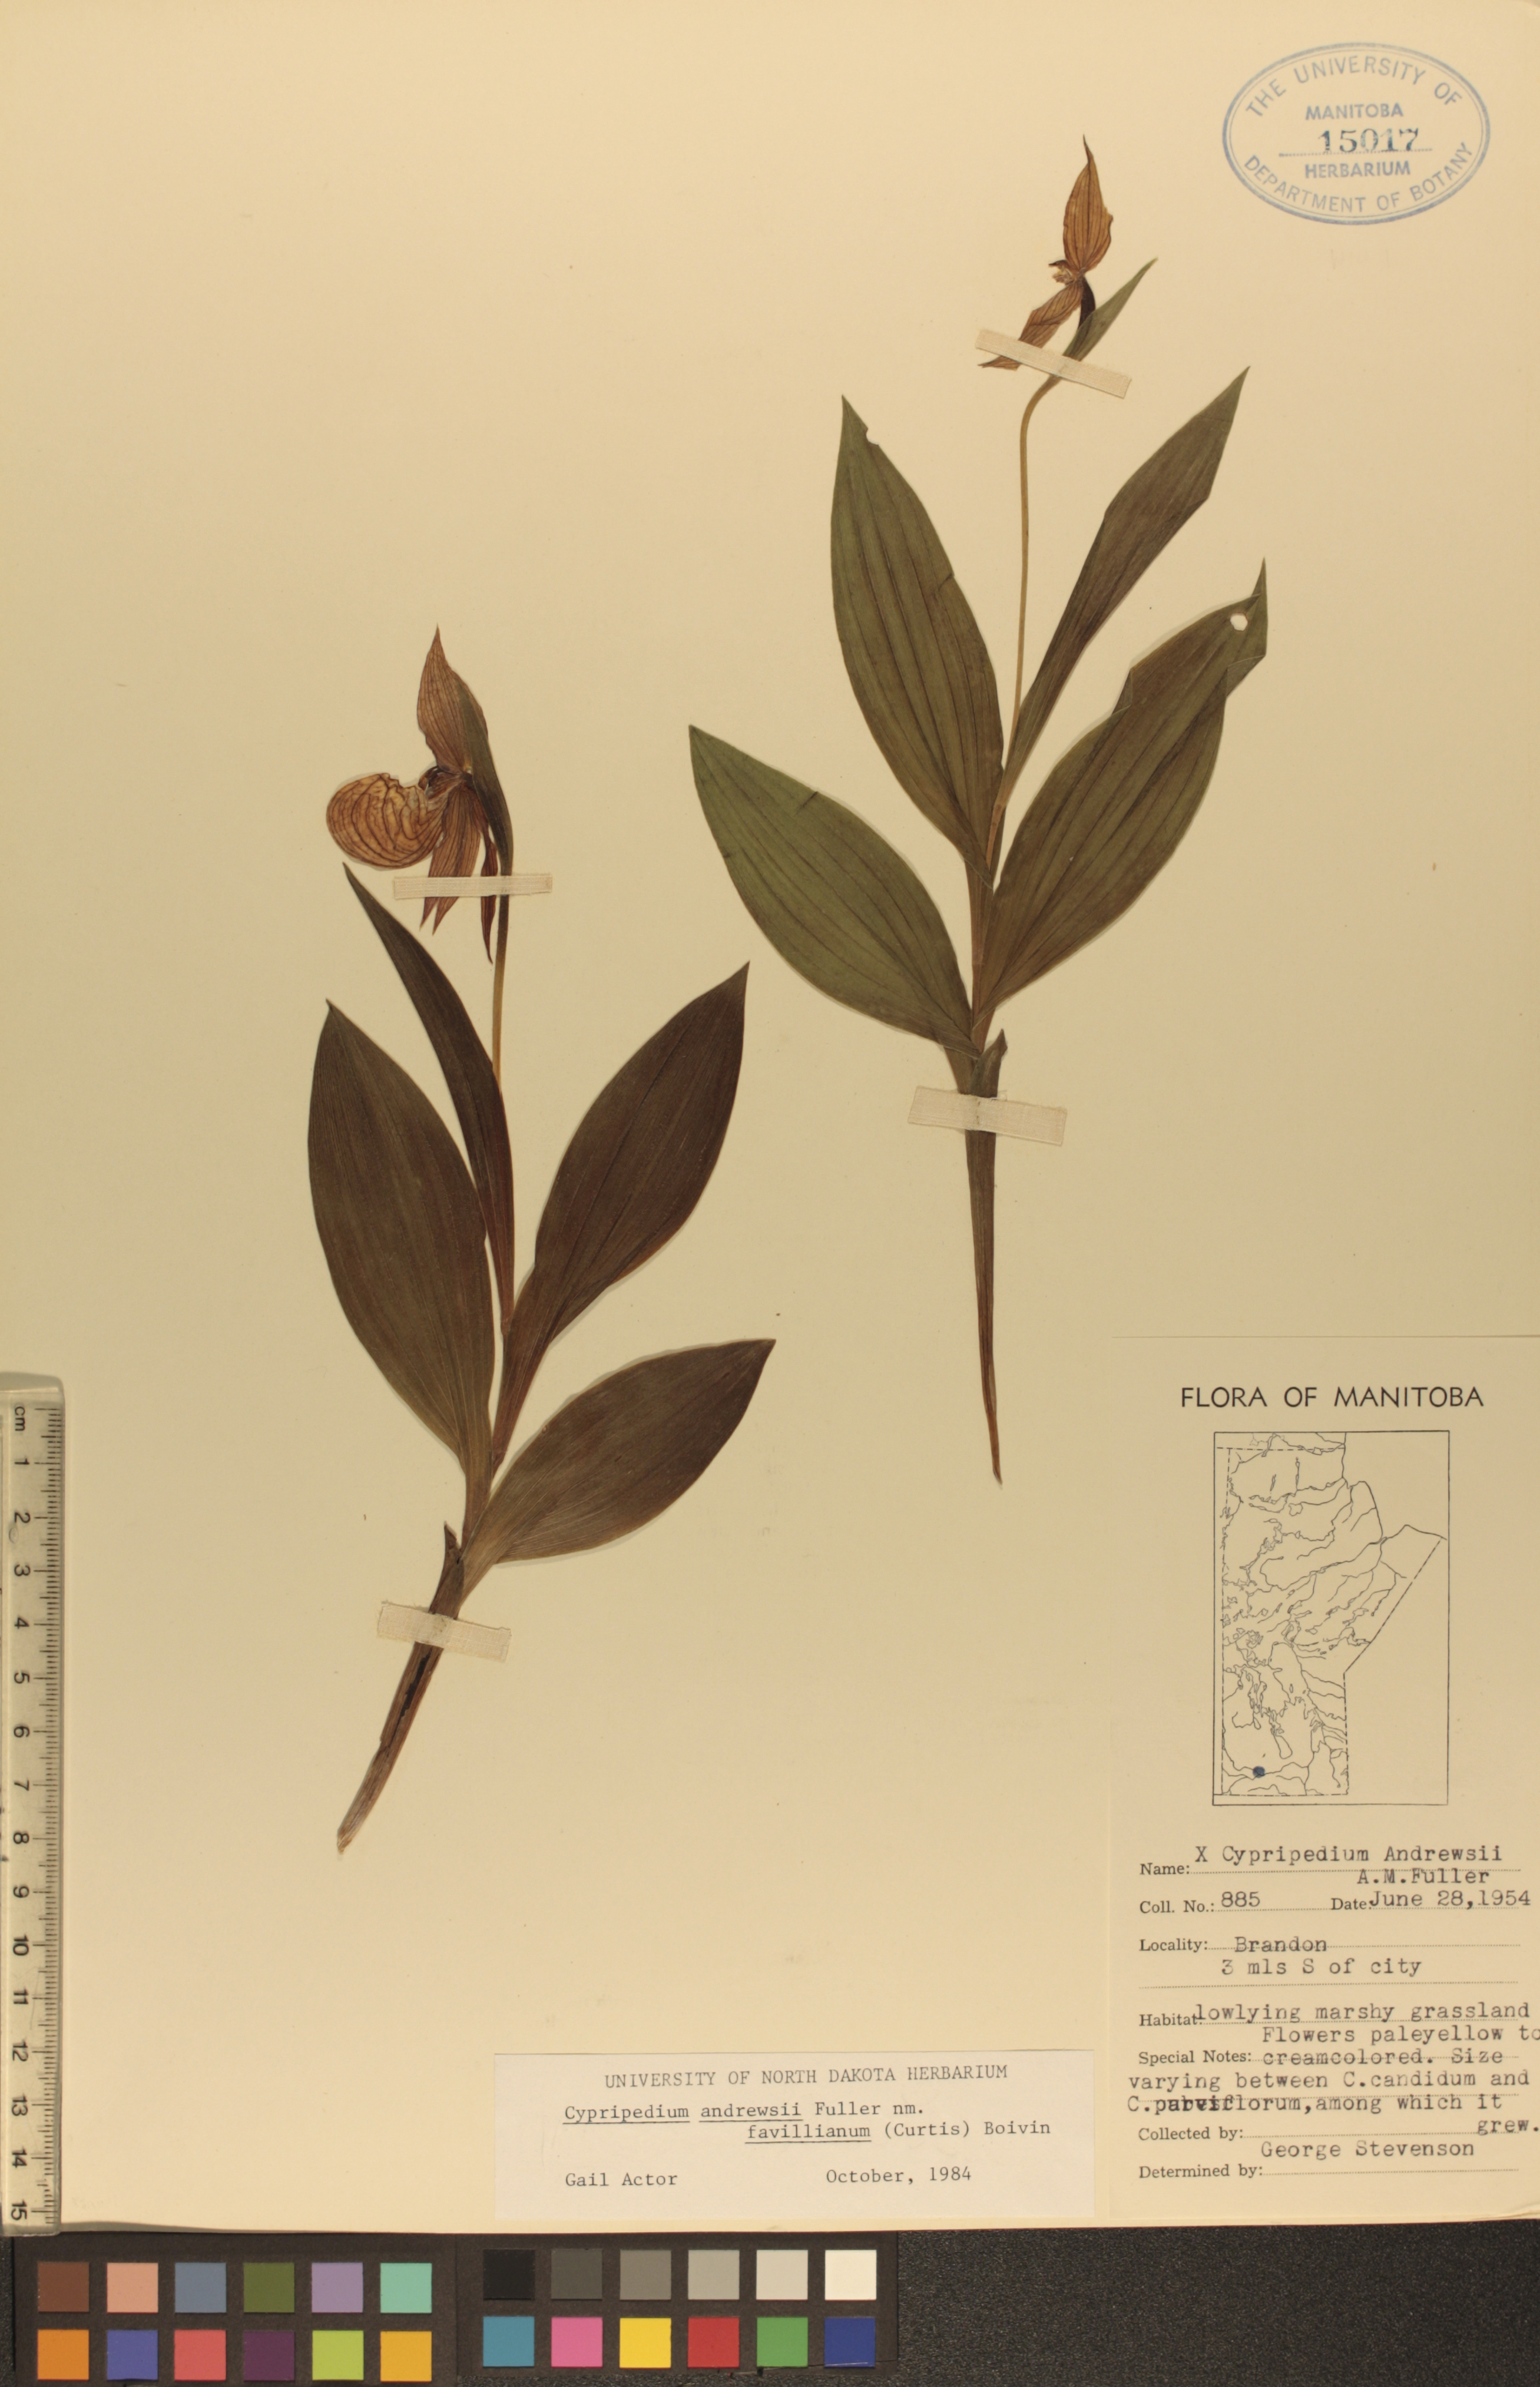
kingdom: Plantae
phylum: Tracheophyta
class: Liliopsida
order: Asparagales
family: Orchidaceae
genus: Cypripedium
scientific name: Cypripedium andrewsii
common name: Andrew's lady's-slipper
